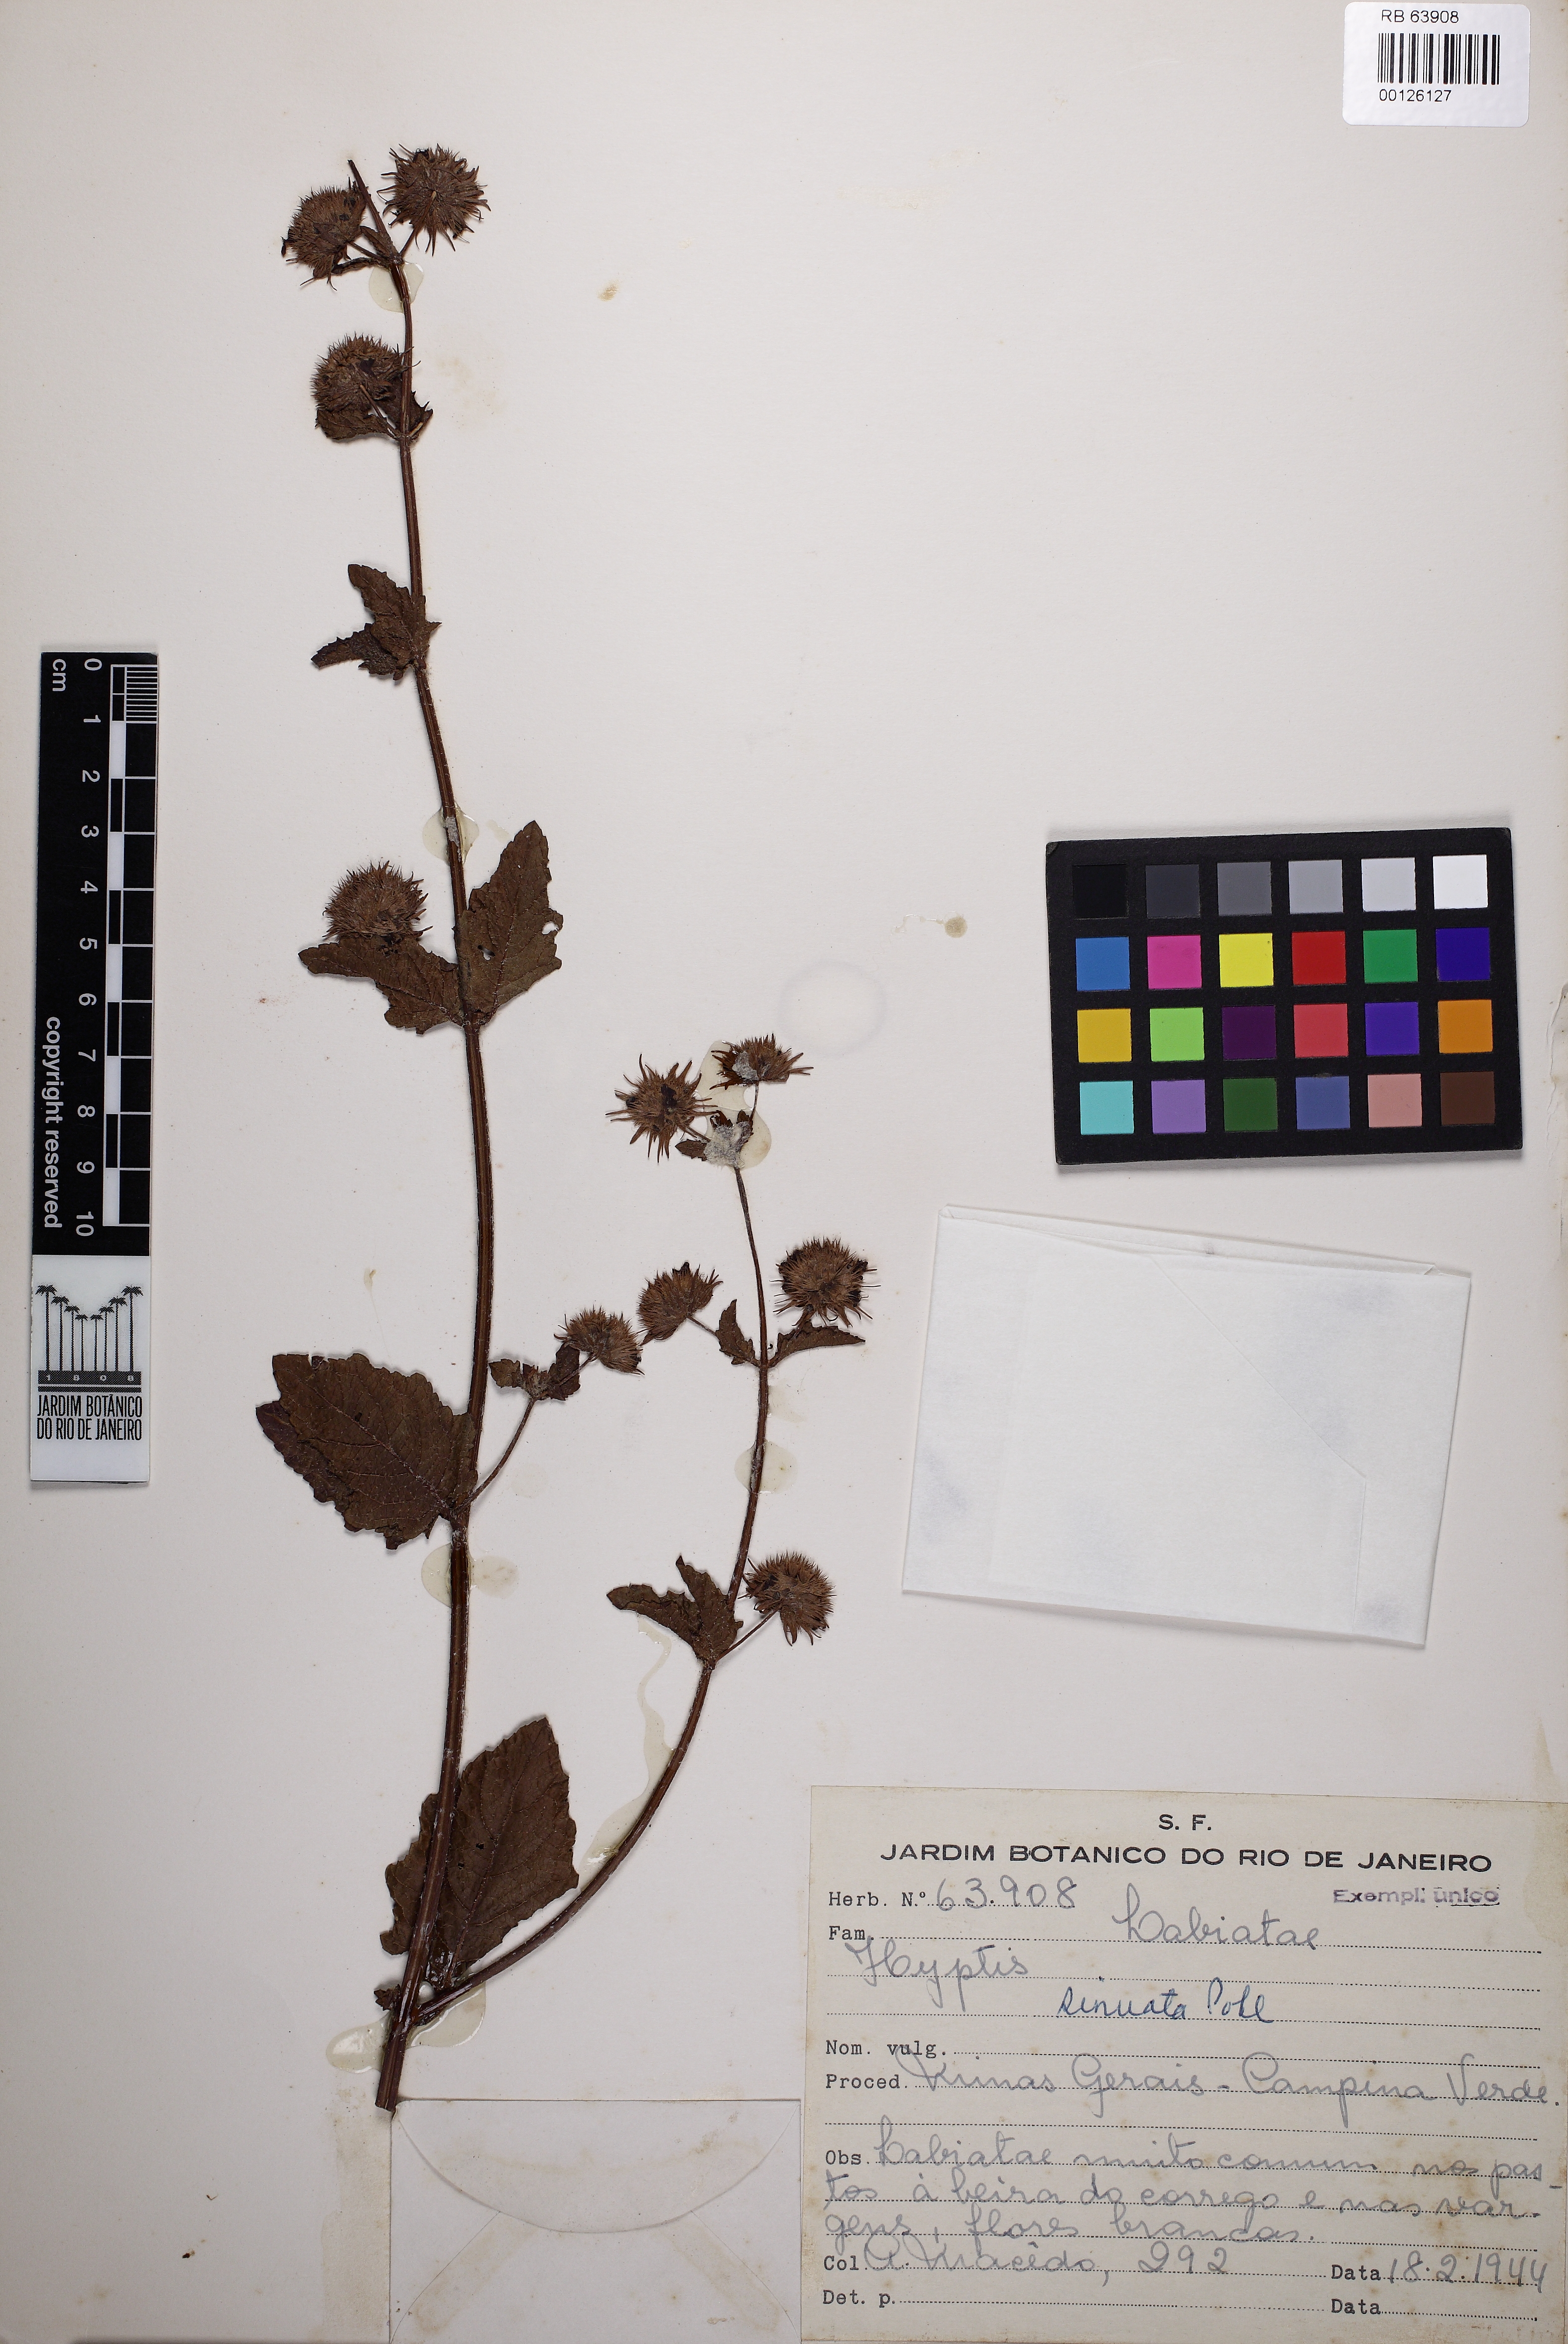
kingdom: Plantae
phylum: Tracheophyta
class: Magnoliopsida
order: Lamiales
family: Lamiaceae
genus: Hyptis
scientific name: Hyptis sinuata
